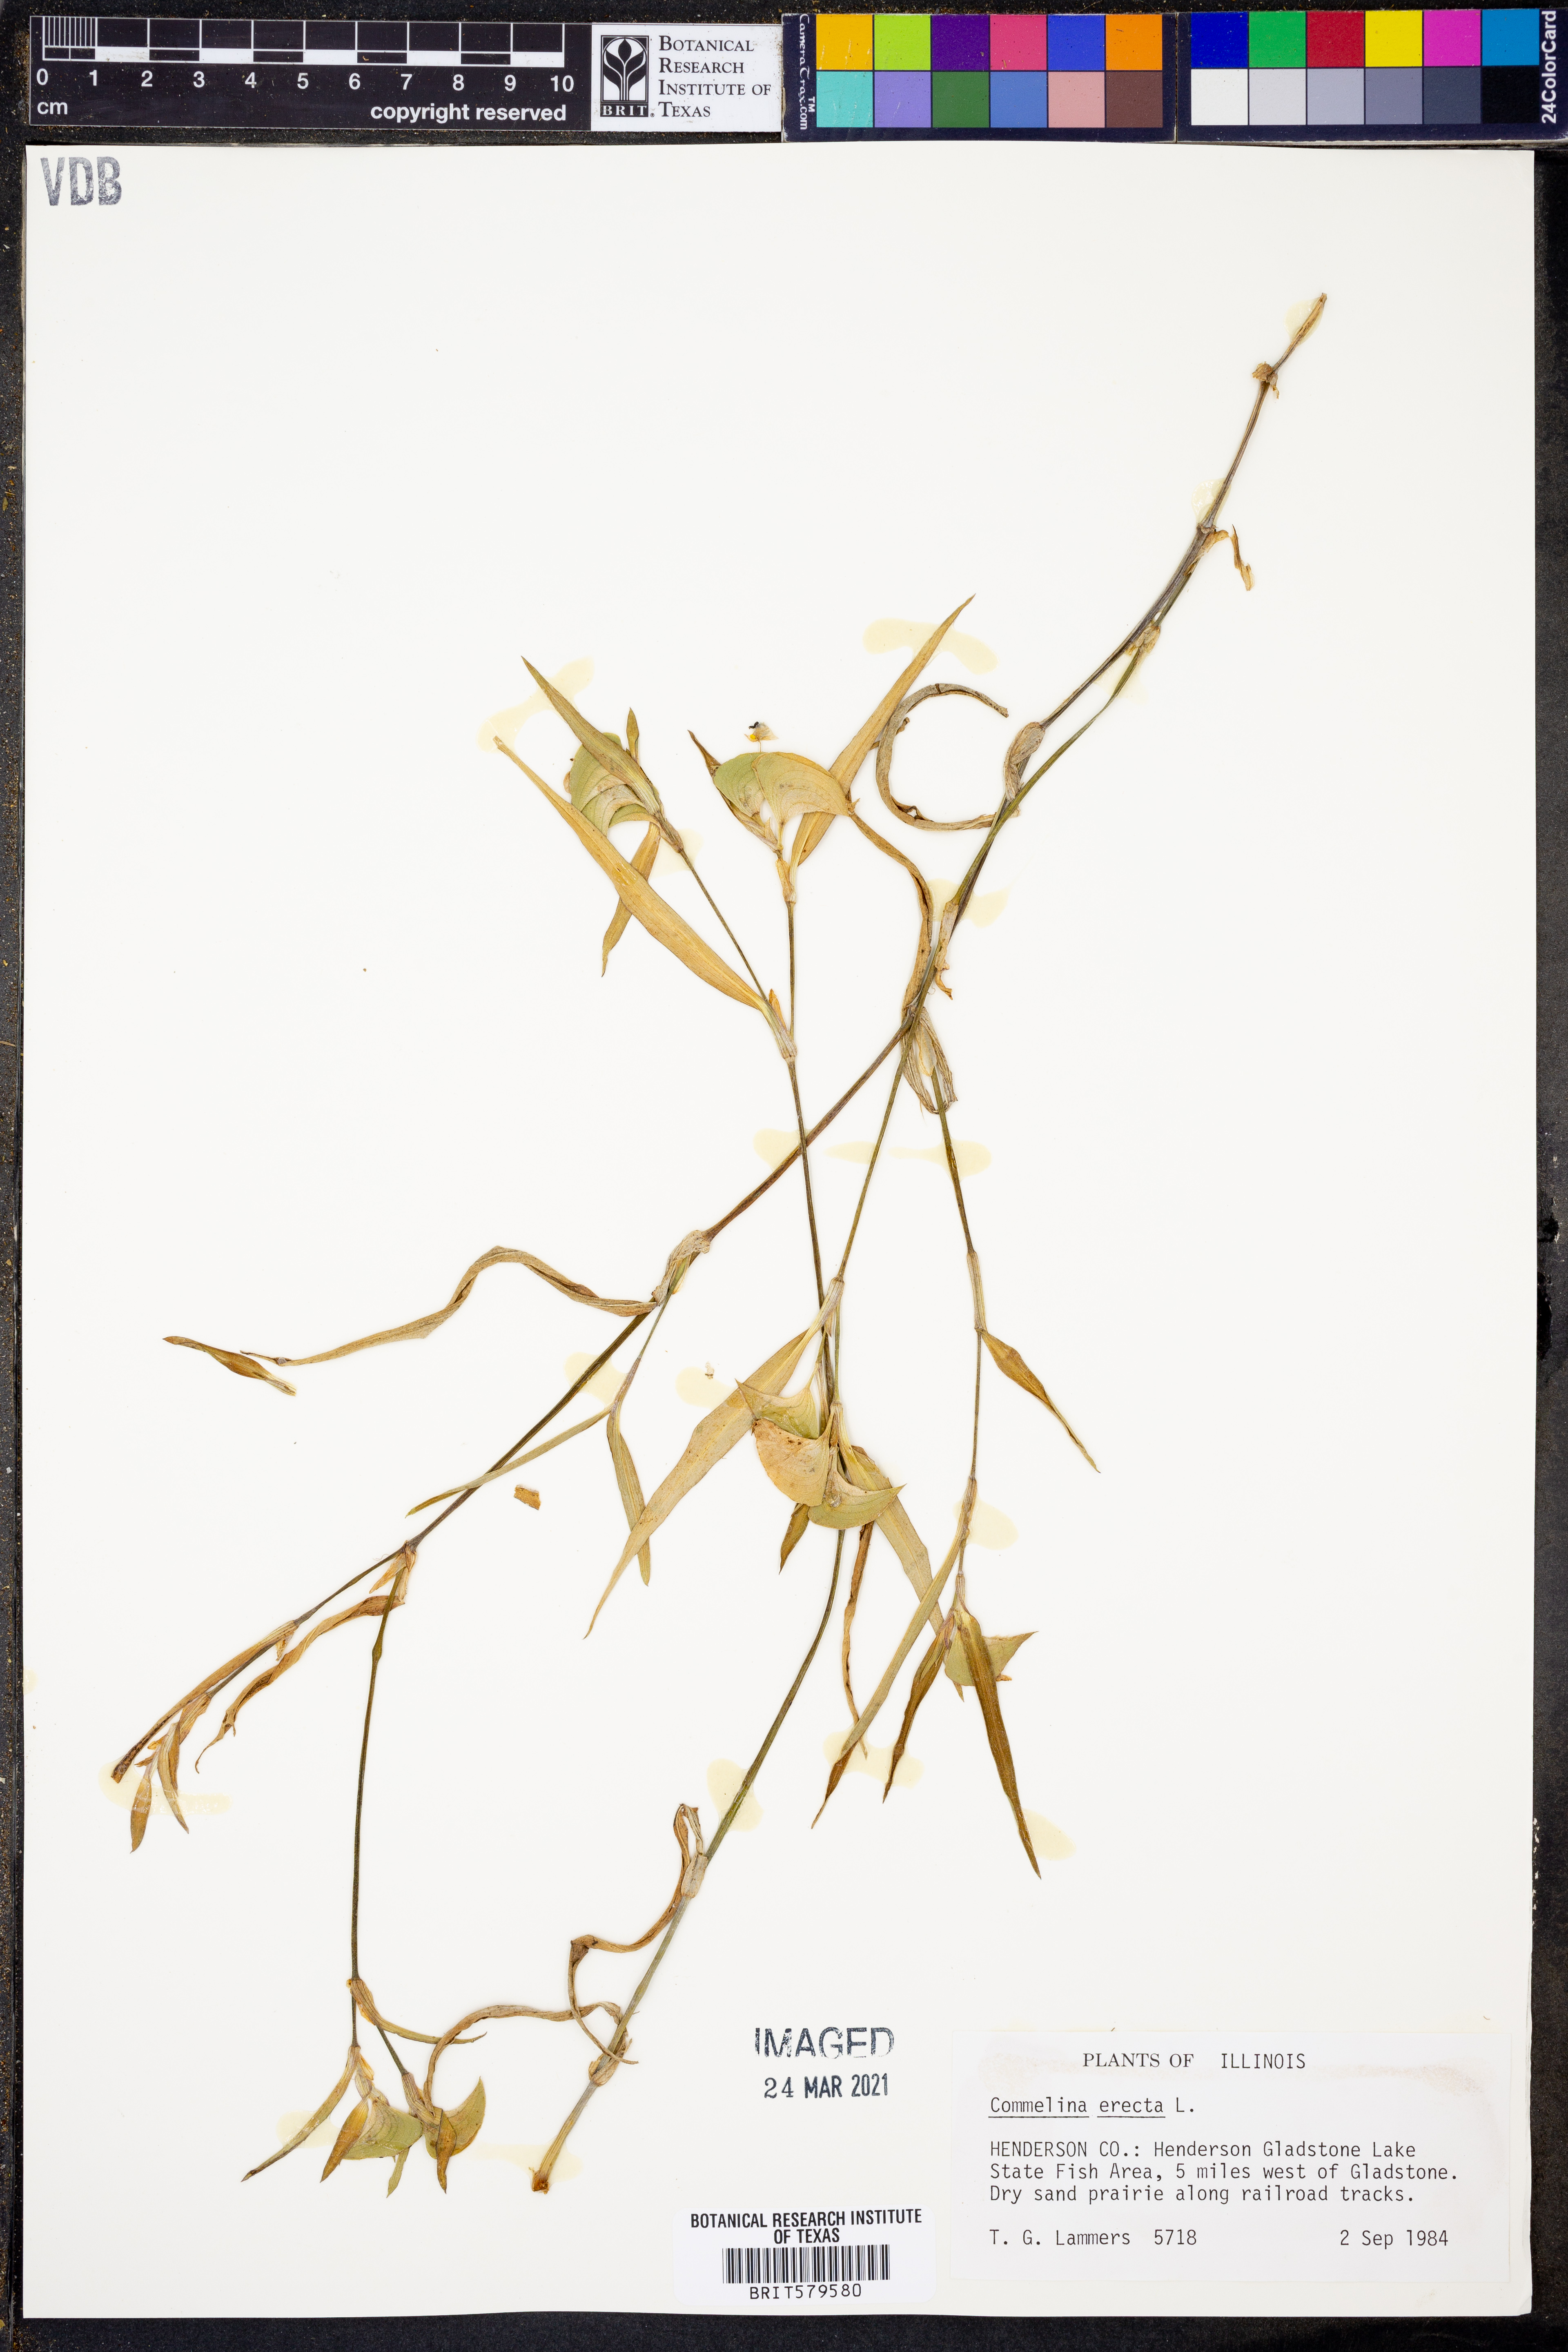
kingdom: Plantae
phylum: Tracheophyta
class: Liliopsida
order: Commelinales
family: Commelinaceae
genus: Commelina
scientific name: Commelina erecta
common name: Blousel blommetjie
